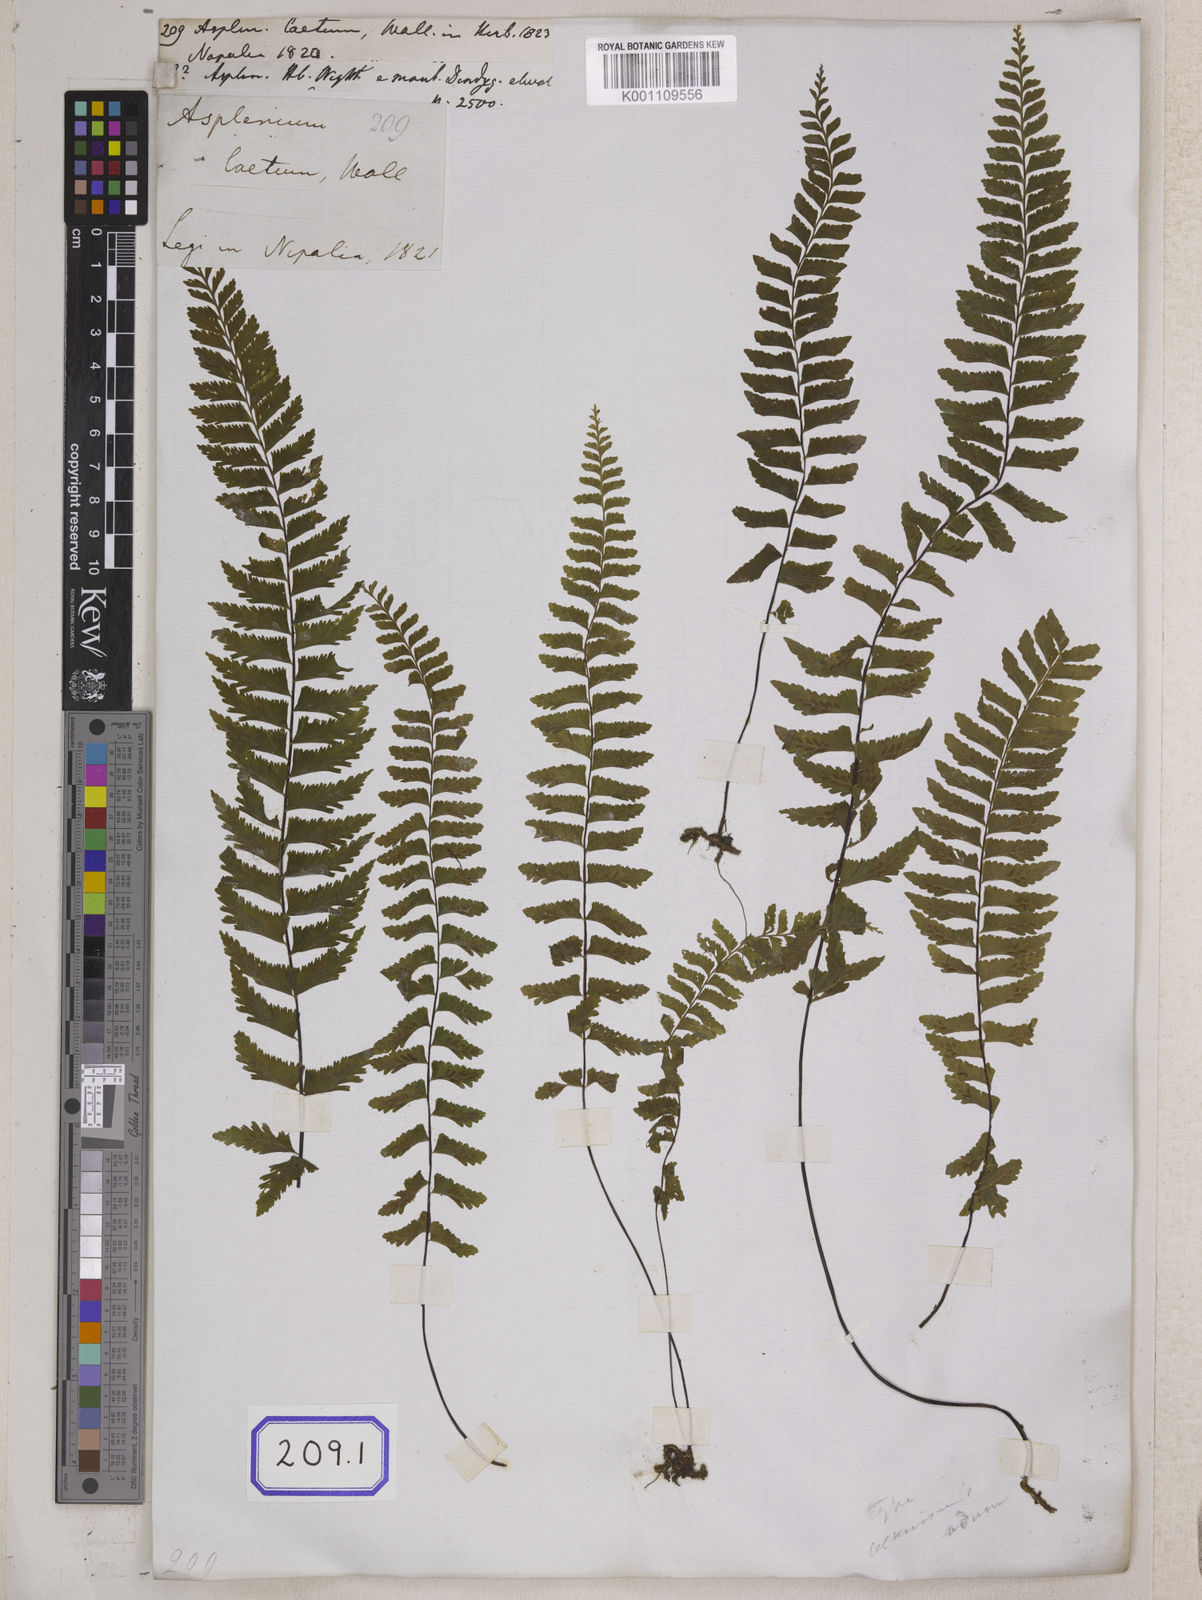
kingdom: Plantae
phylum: Tracheophyta
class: Polypodiopsida
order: Polypodiales
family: Aspleniaceae
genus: Asplenium
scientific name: Asplenium
